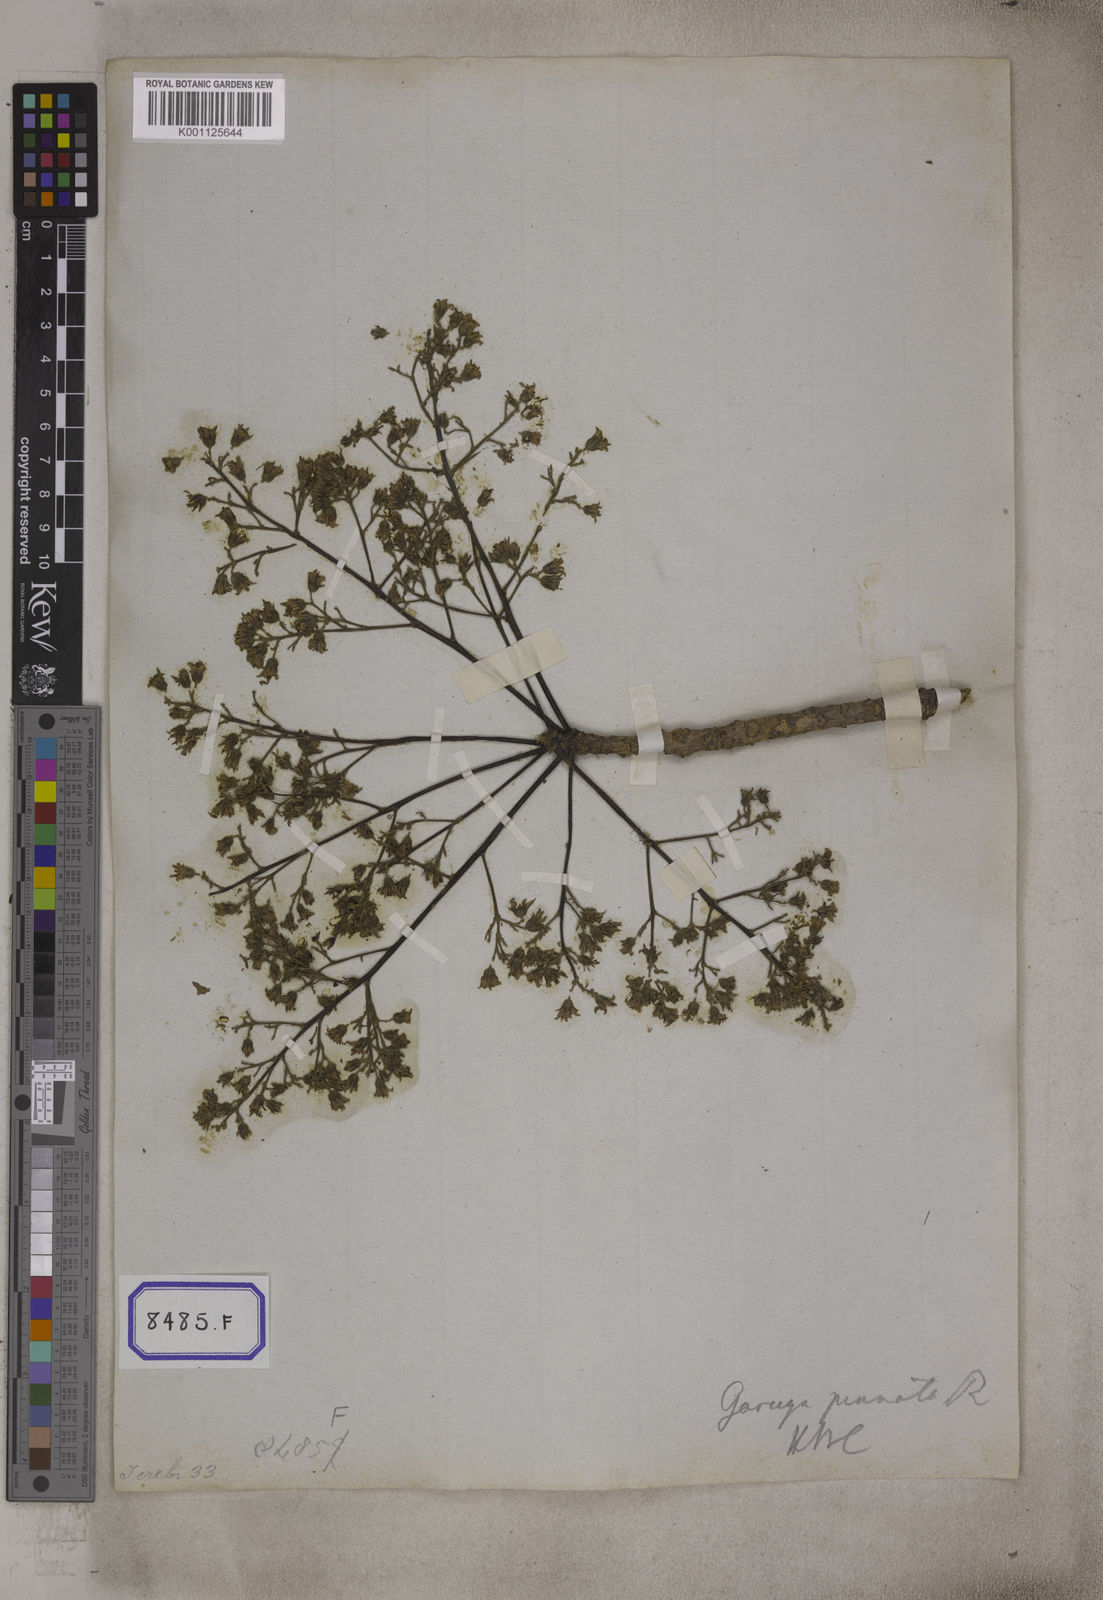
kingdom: Plantae
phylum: Tracheophyta
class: Magnoliopsida
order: Sapindales
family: Burseraceae
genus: Garuga
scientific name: Garuga pinnata
